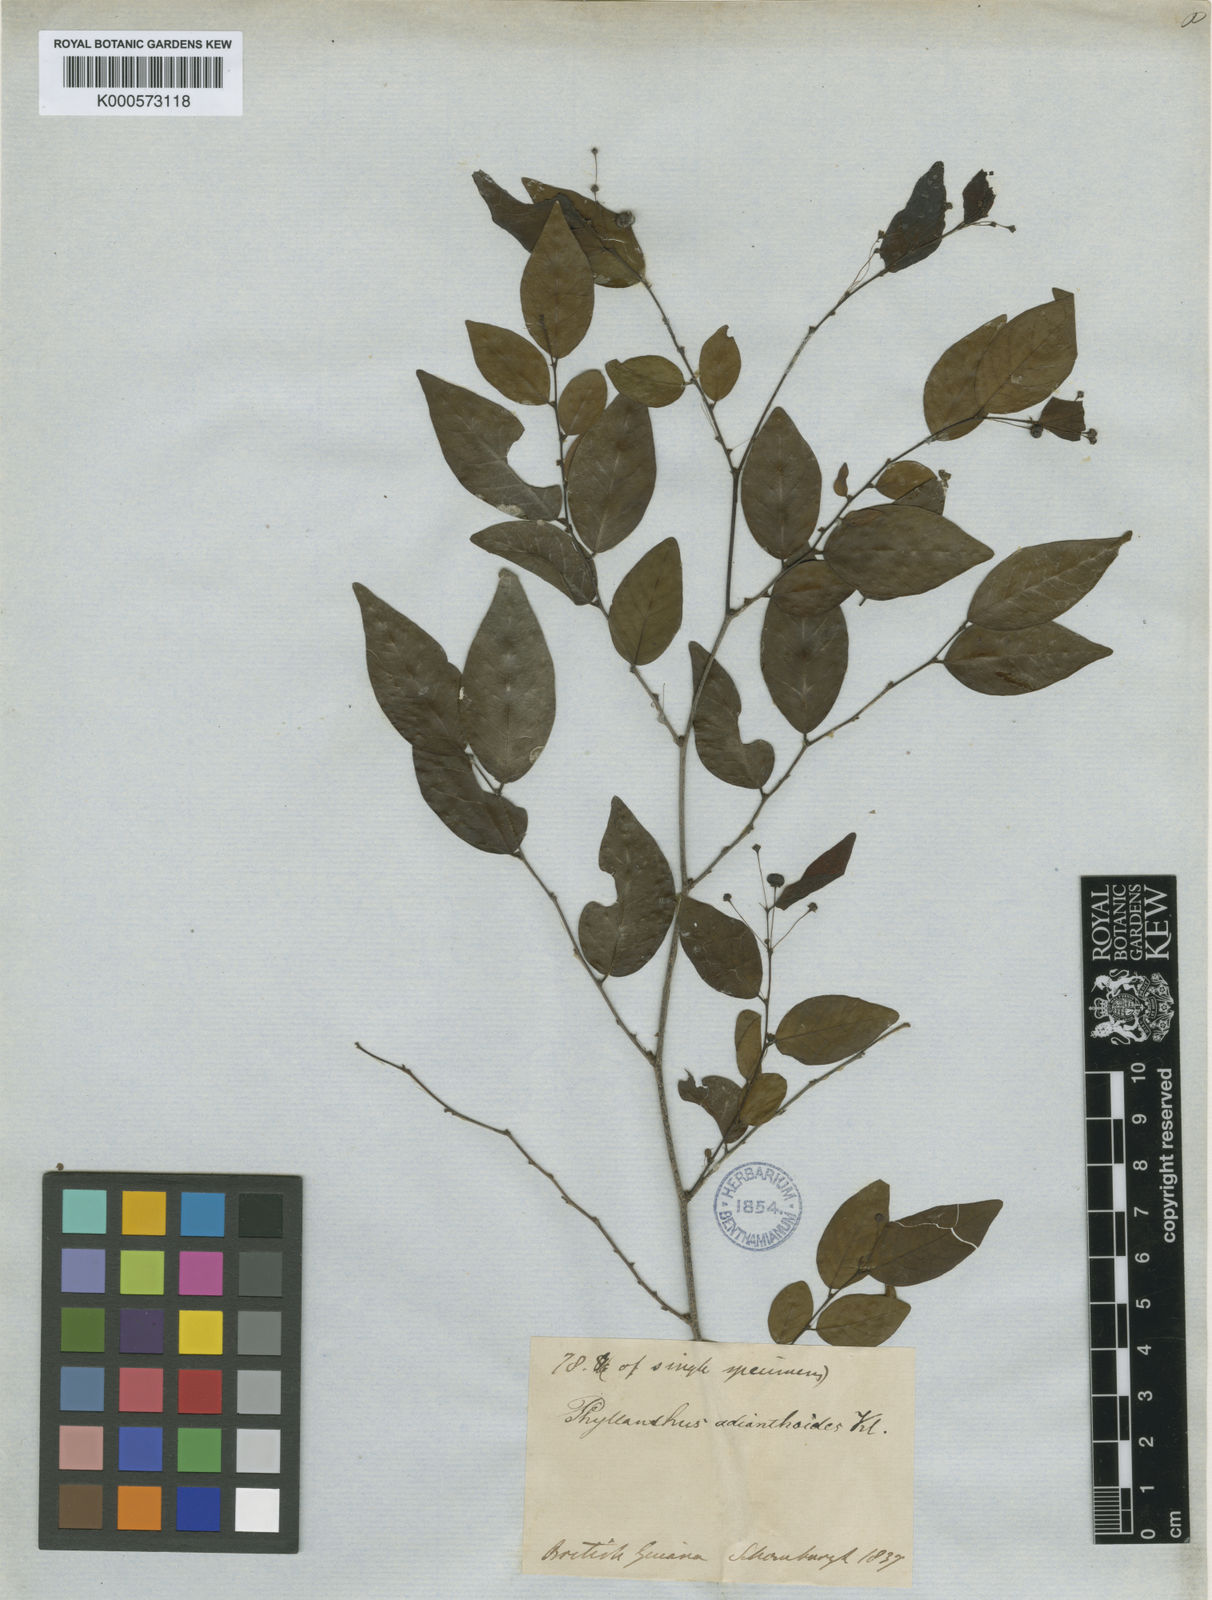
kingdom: Plantae
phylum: Tracheophyta
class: Magnoliopsida
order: Malpighiales
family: Phyllanthaceae
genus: Phyllanthus
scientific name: Phyllanthus adianthoides
